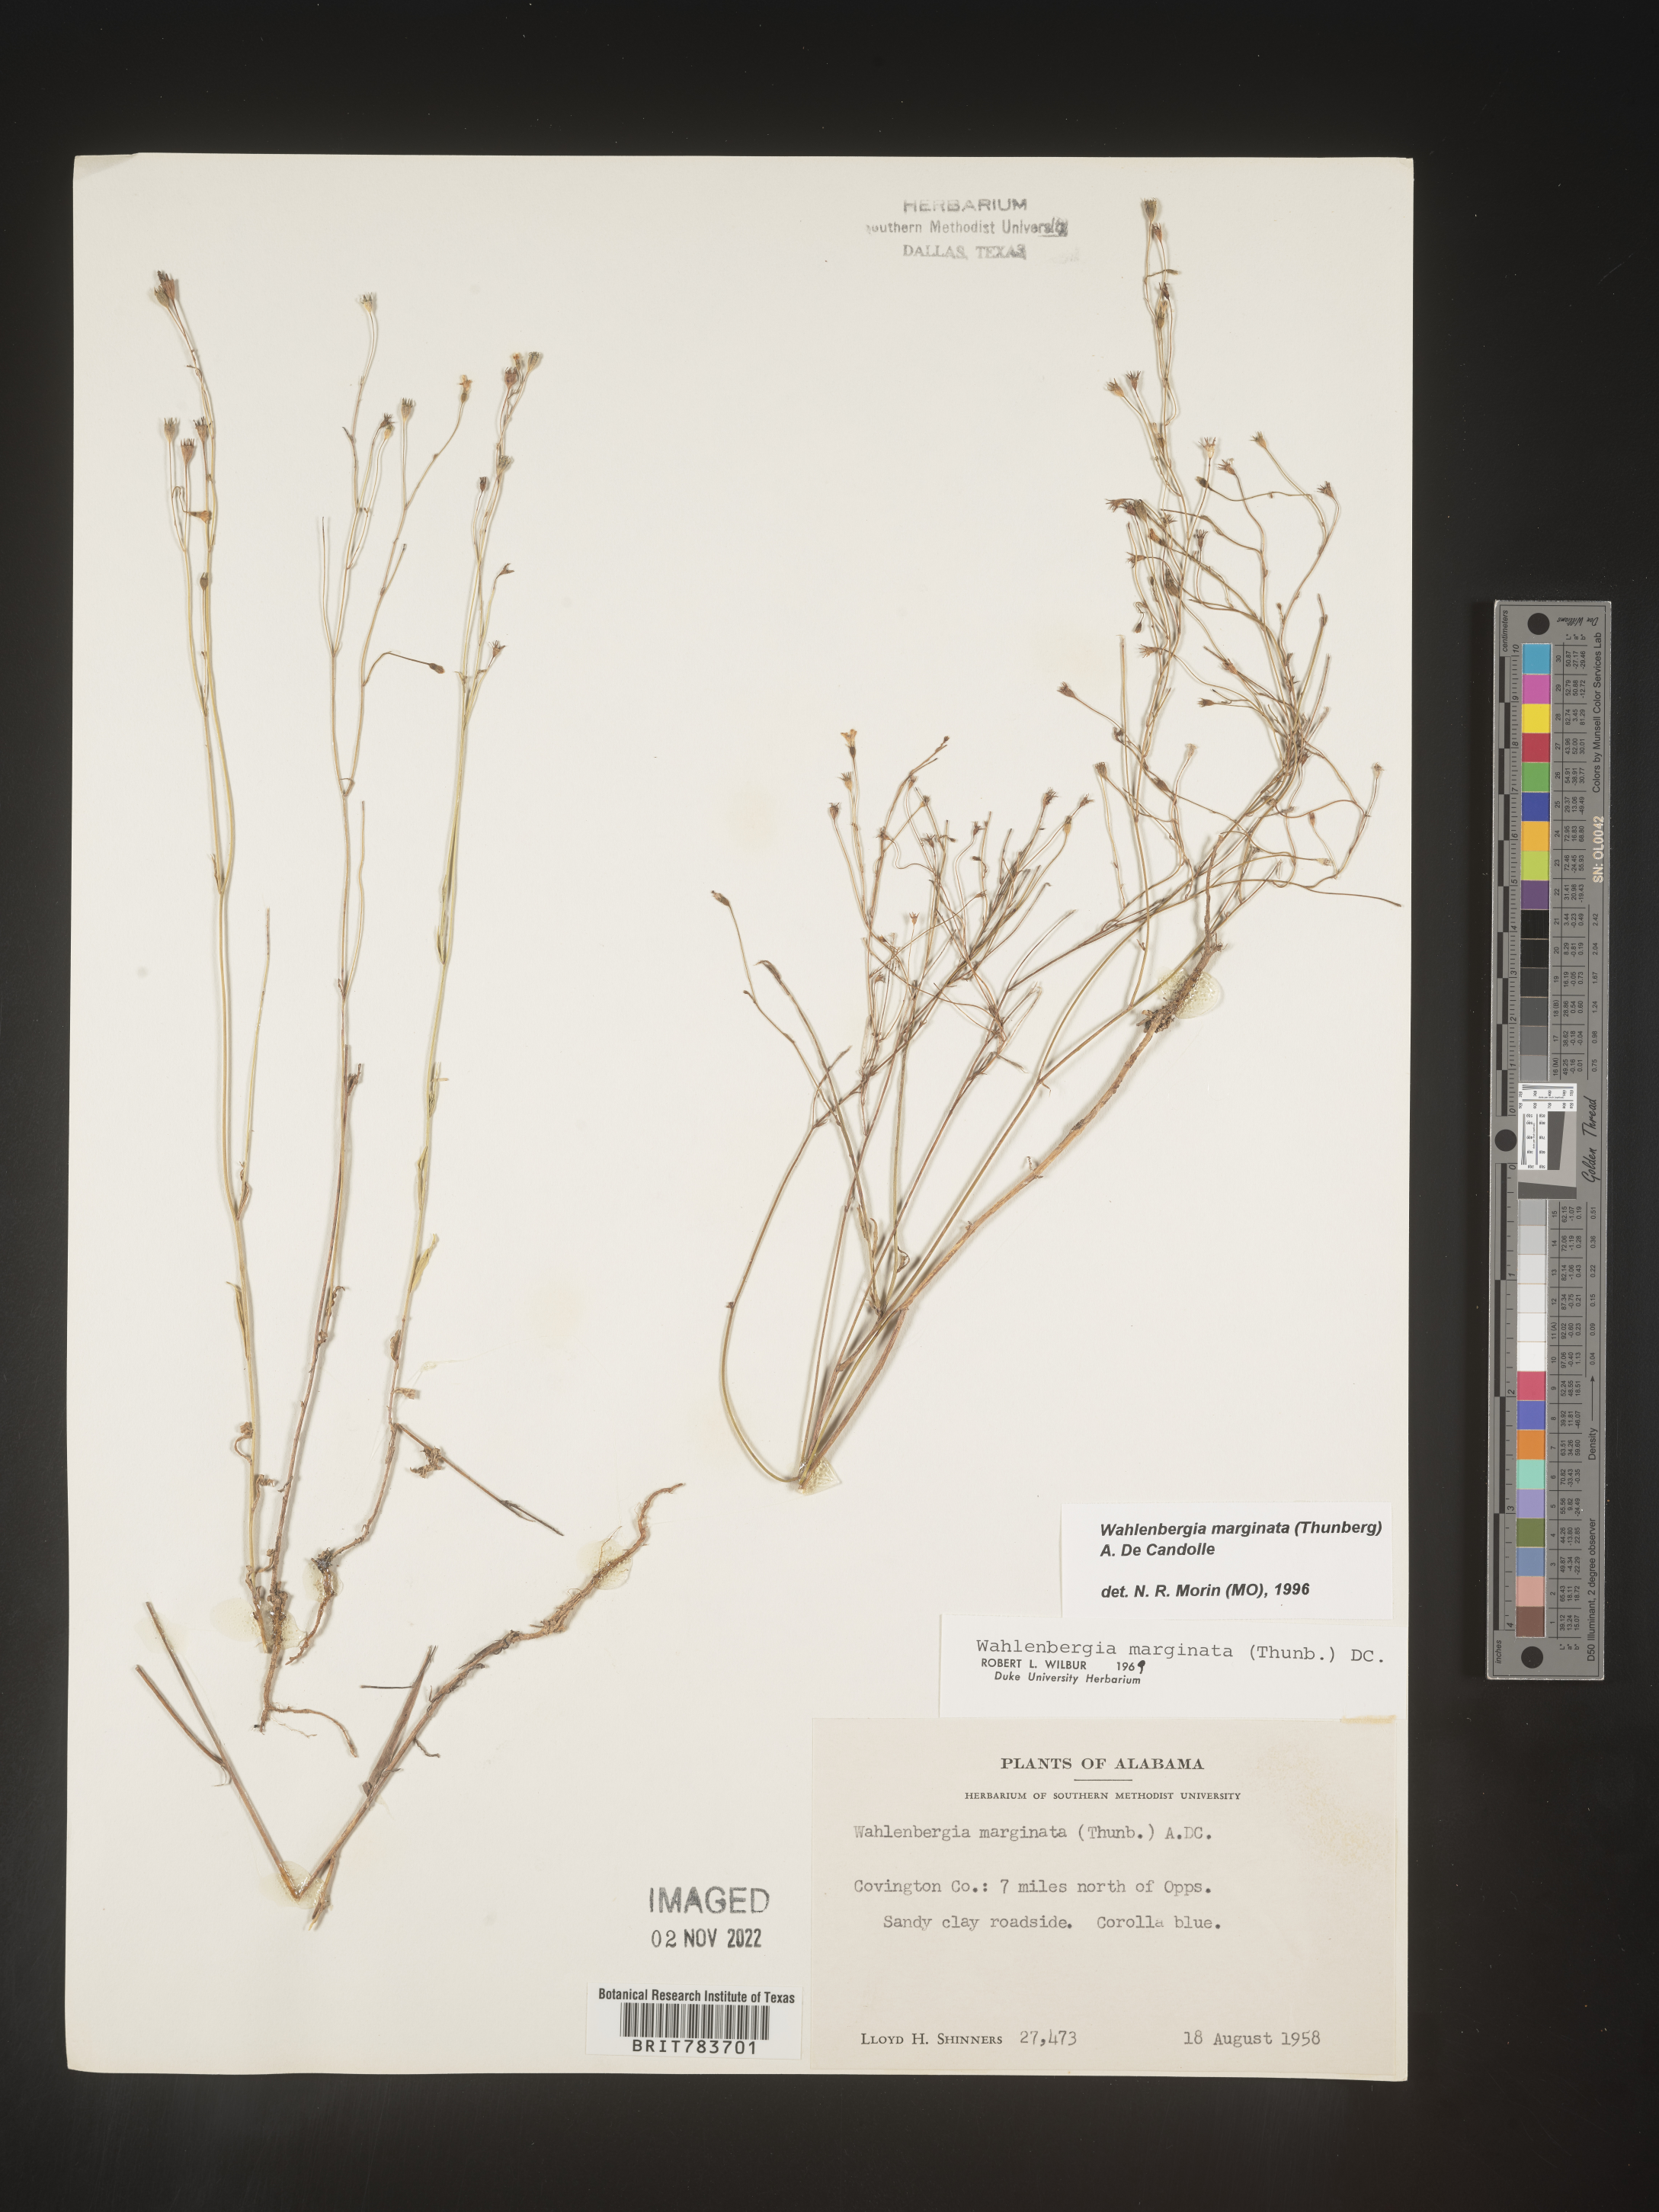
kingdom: Plantae
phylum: Tracheophyta
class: Magnoliopsida
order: Asterales
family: Campanulaceae
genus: Wahlenbergia
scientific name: Wahlenbergia marginata
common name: Southern rockbell
